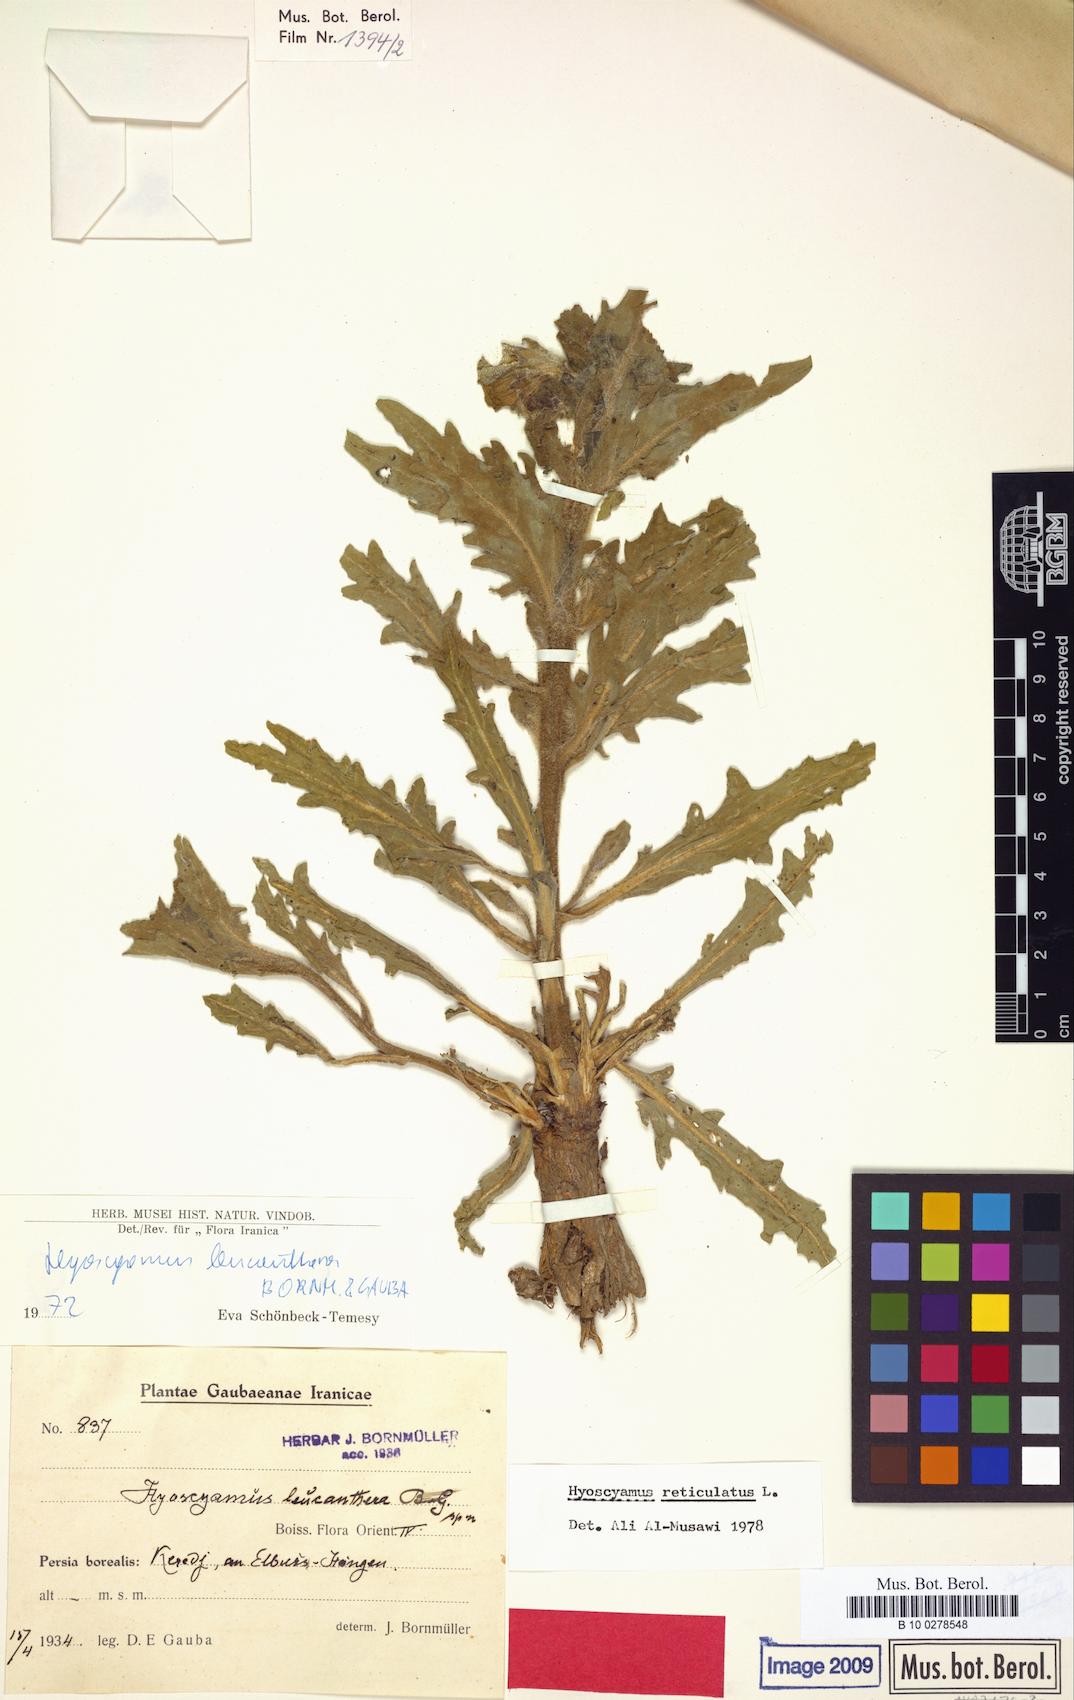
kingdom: Plantae
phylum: Tracheophyta
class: Magnoliopsida
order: Solanales
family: Solanaceae
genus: Hyoscyamus
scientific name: Hyoscyamus leucanthera
